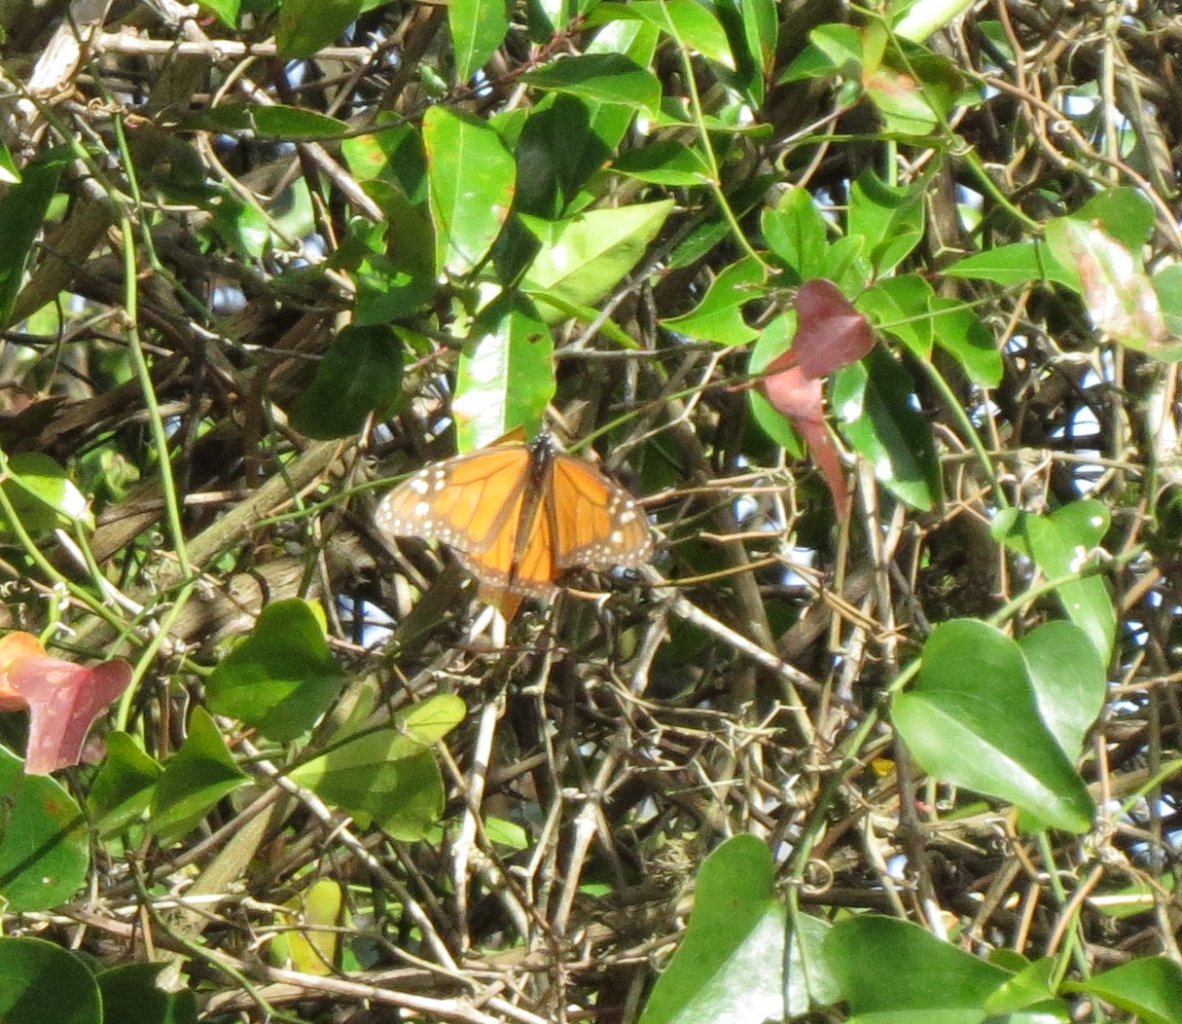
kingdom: Animalia
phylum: Arthropoda
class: Insecta
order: Lepidoptera
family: Nymphalidae
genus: Danaus
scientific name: Danaus plexippus
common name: Monarch
